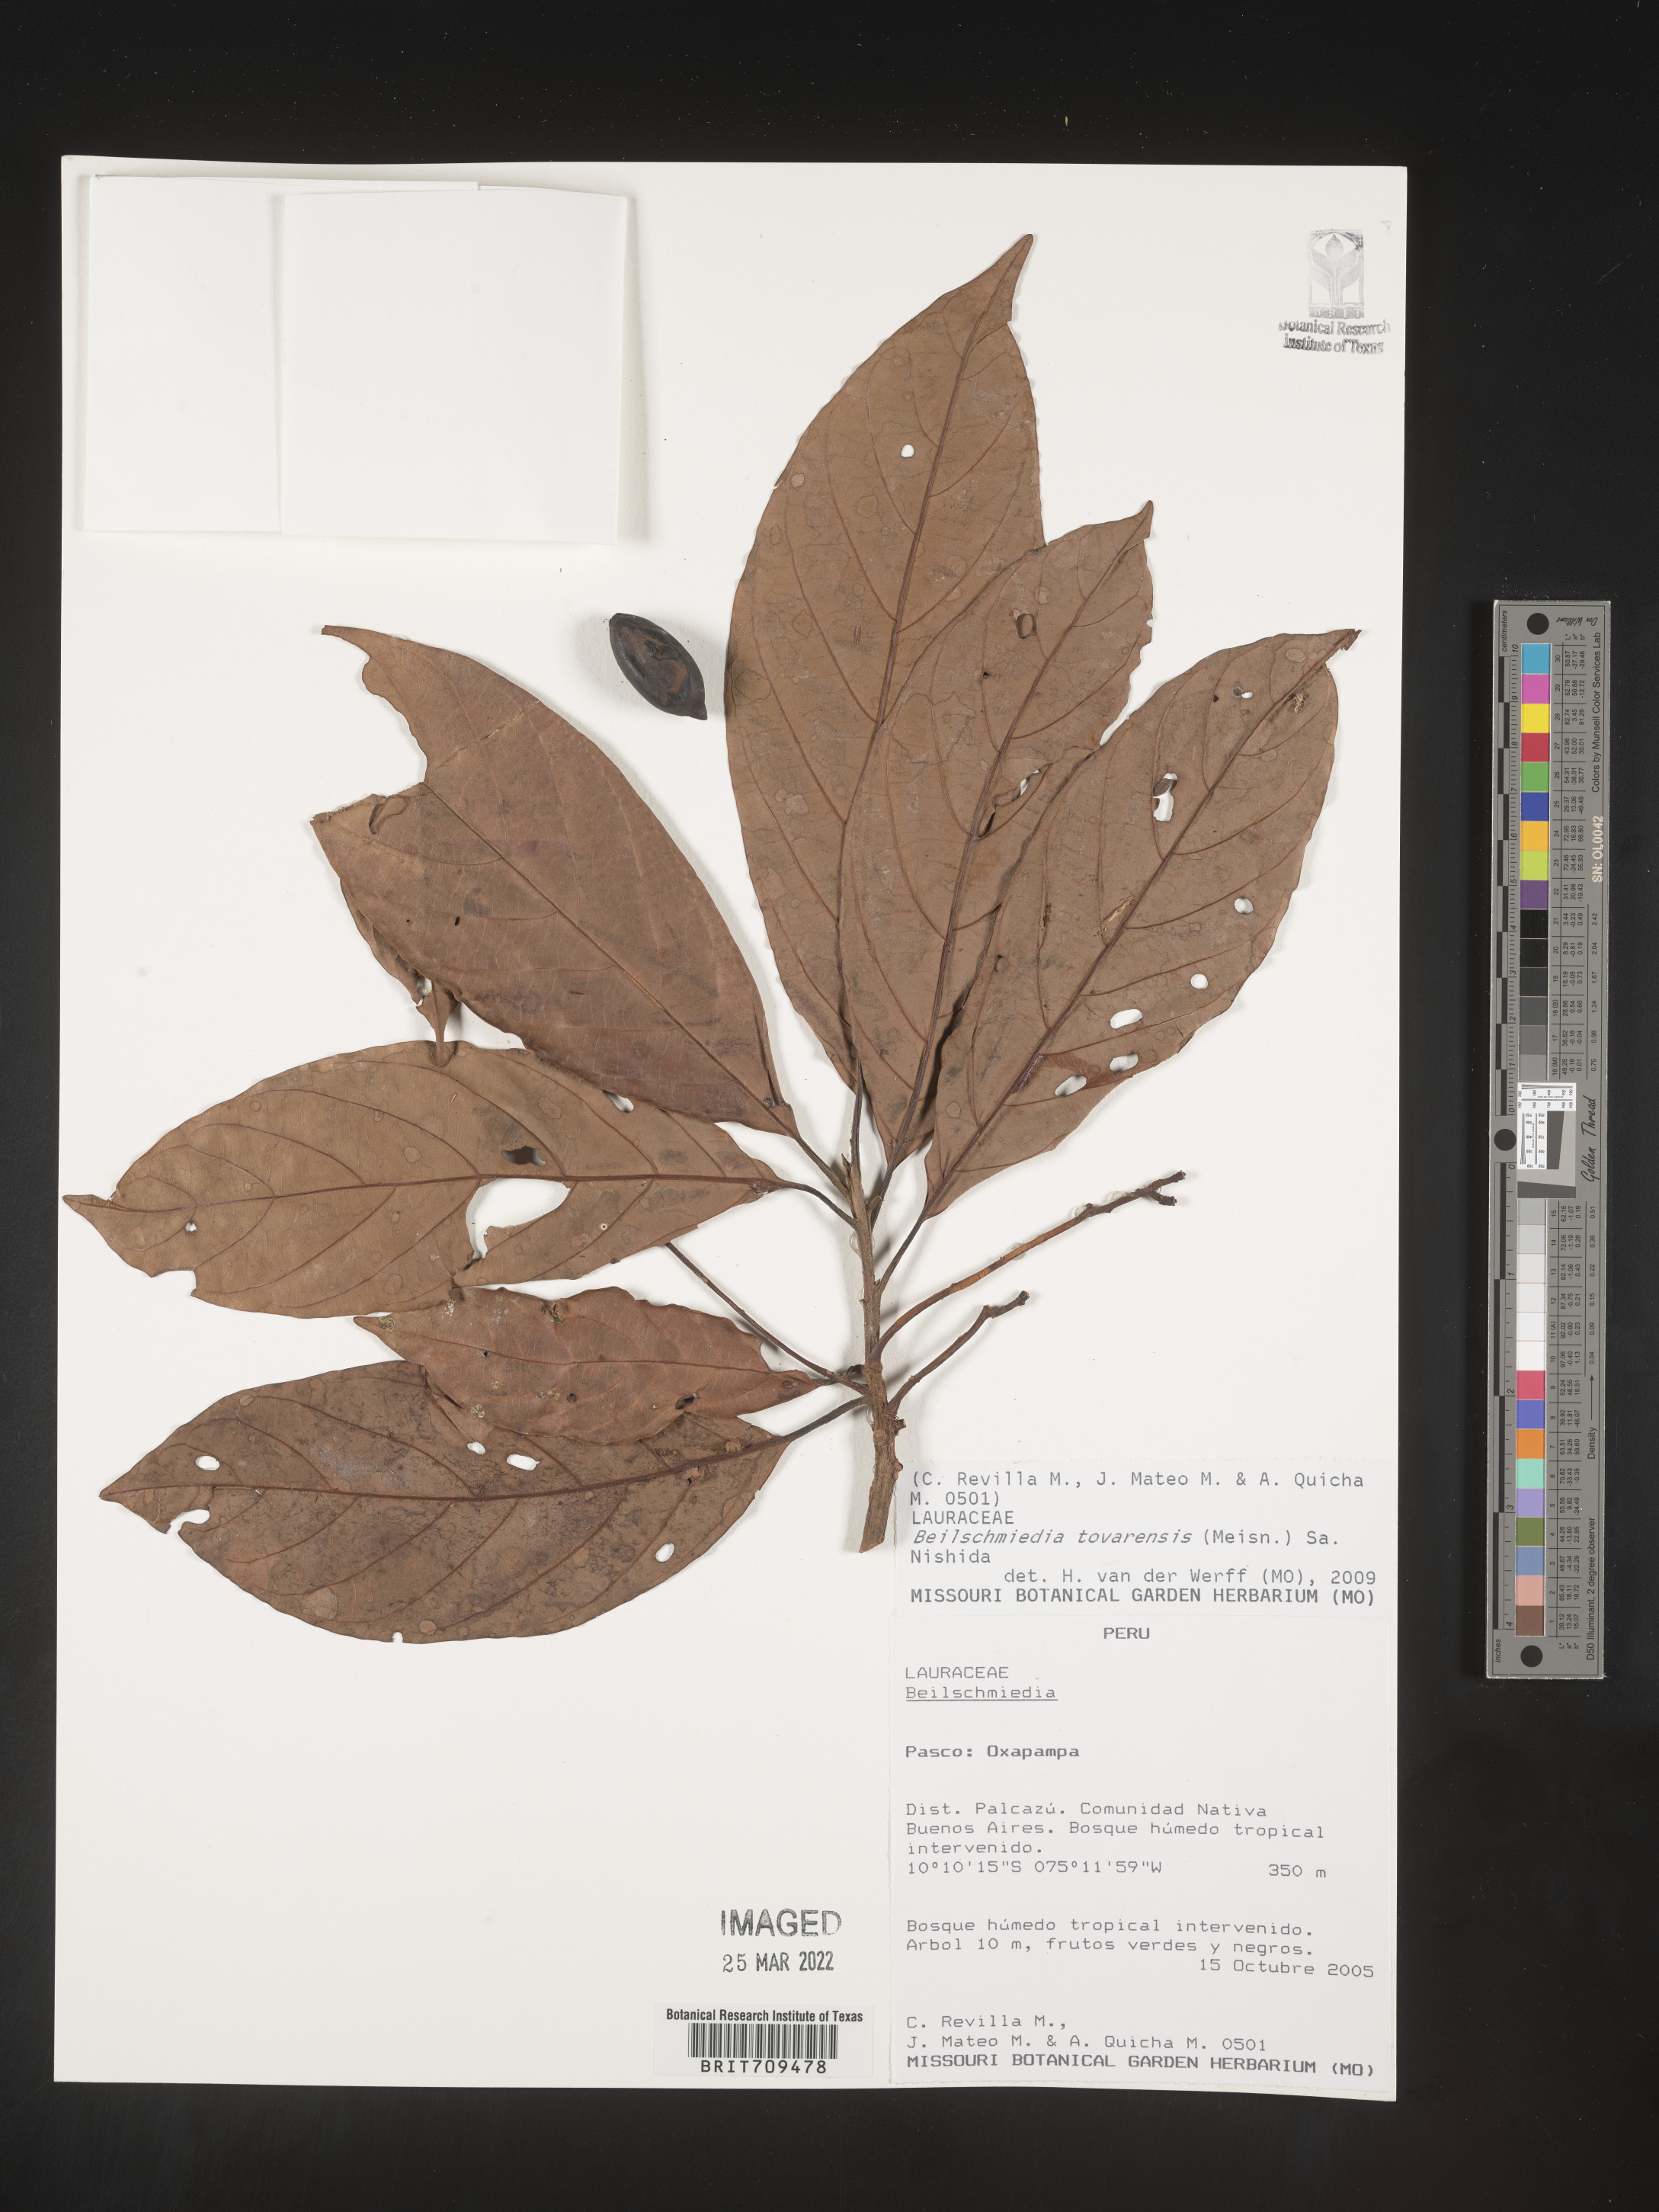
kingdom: Plantae
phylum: Tracheophyta
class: Magnoliopsida
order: Laurales
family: Lauraceae
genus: Beilschmiedia
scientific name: Beilschmiedia
